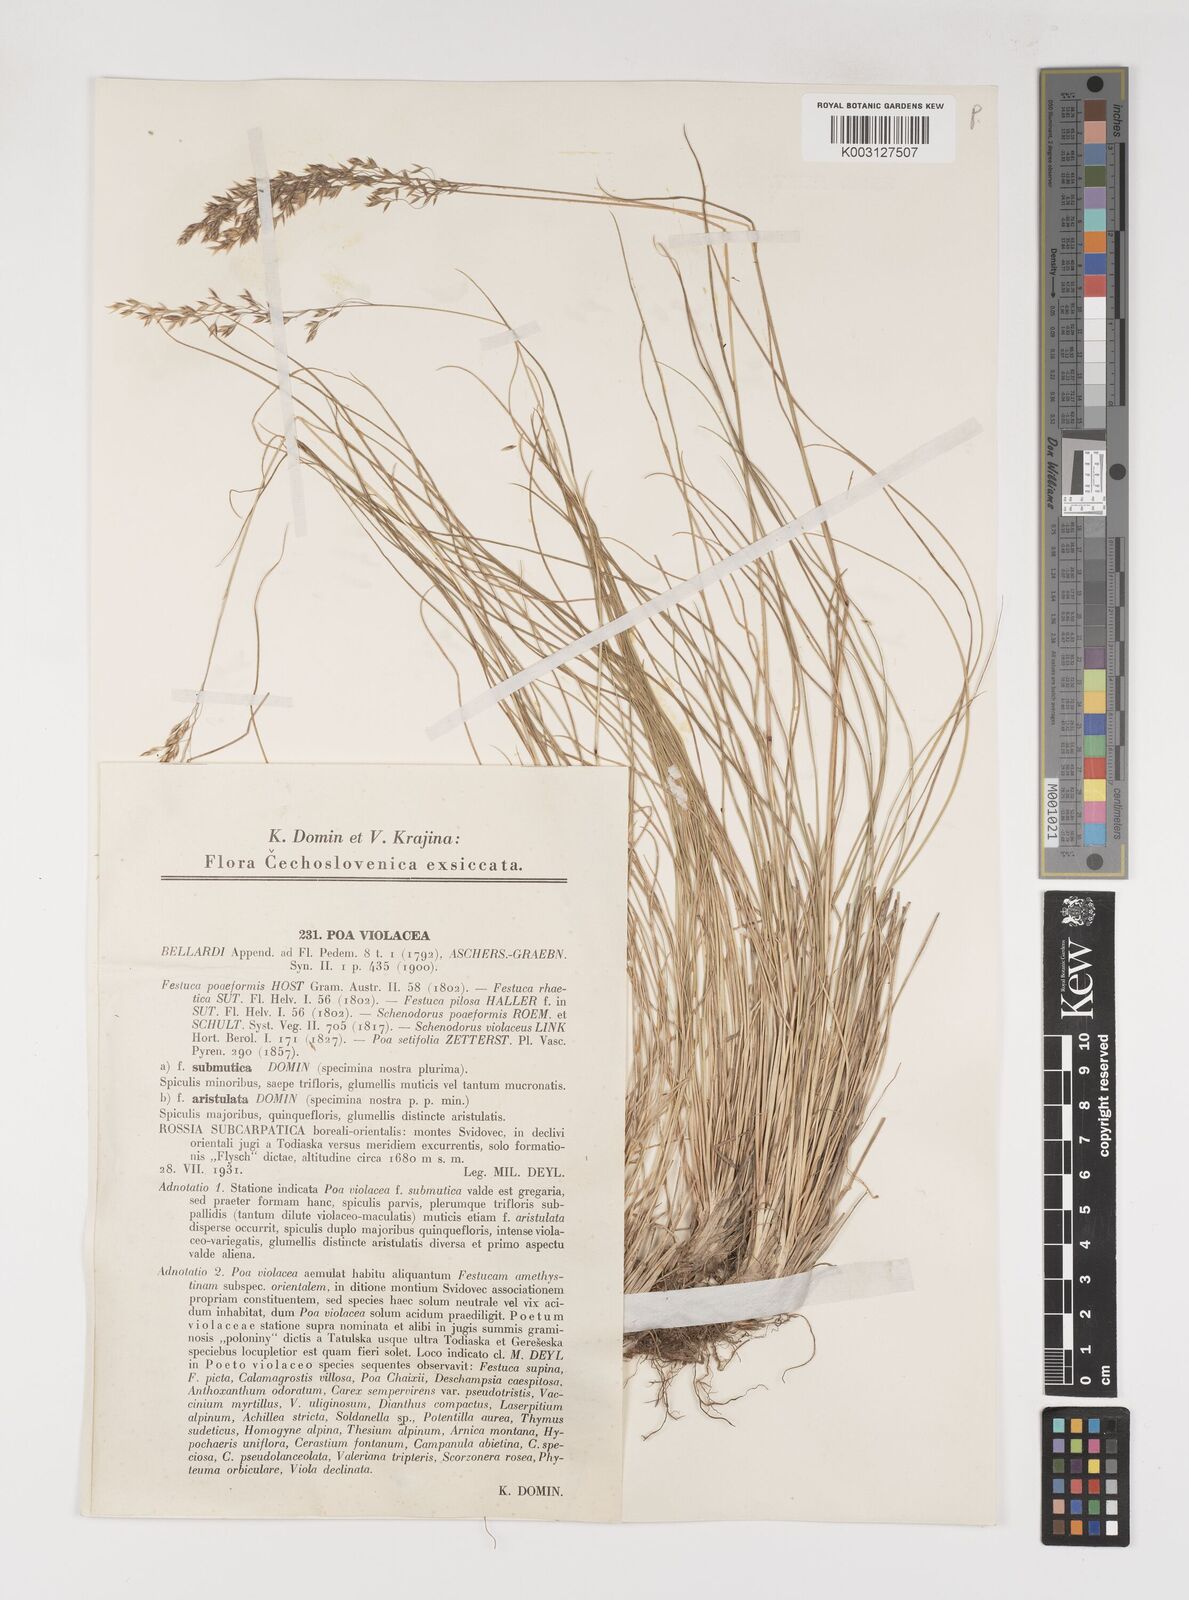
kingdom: Plantae
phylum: Tracheophyta
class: Liliopsida
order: Poales
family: Poaceae
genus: Bellardiochloa
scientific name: Bellardiochloa variegata
